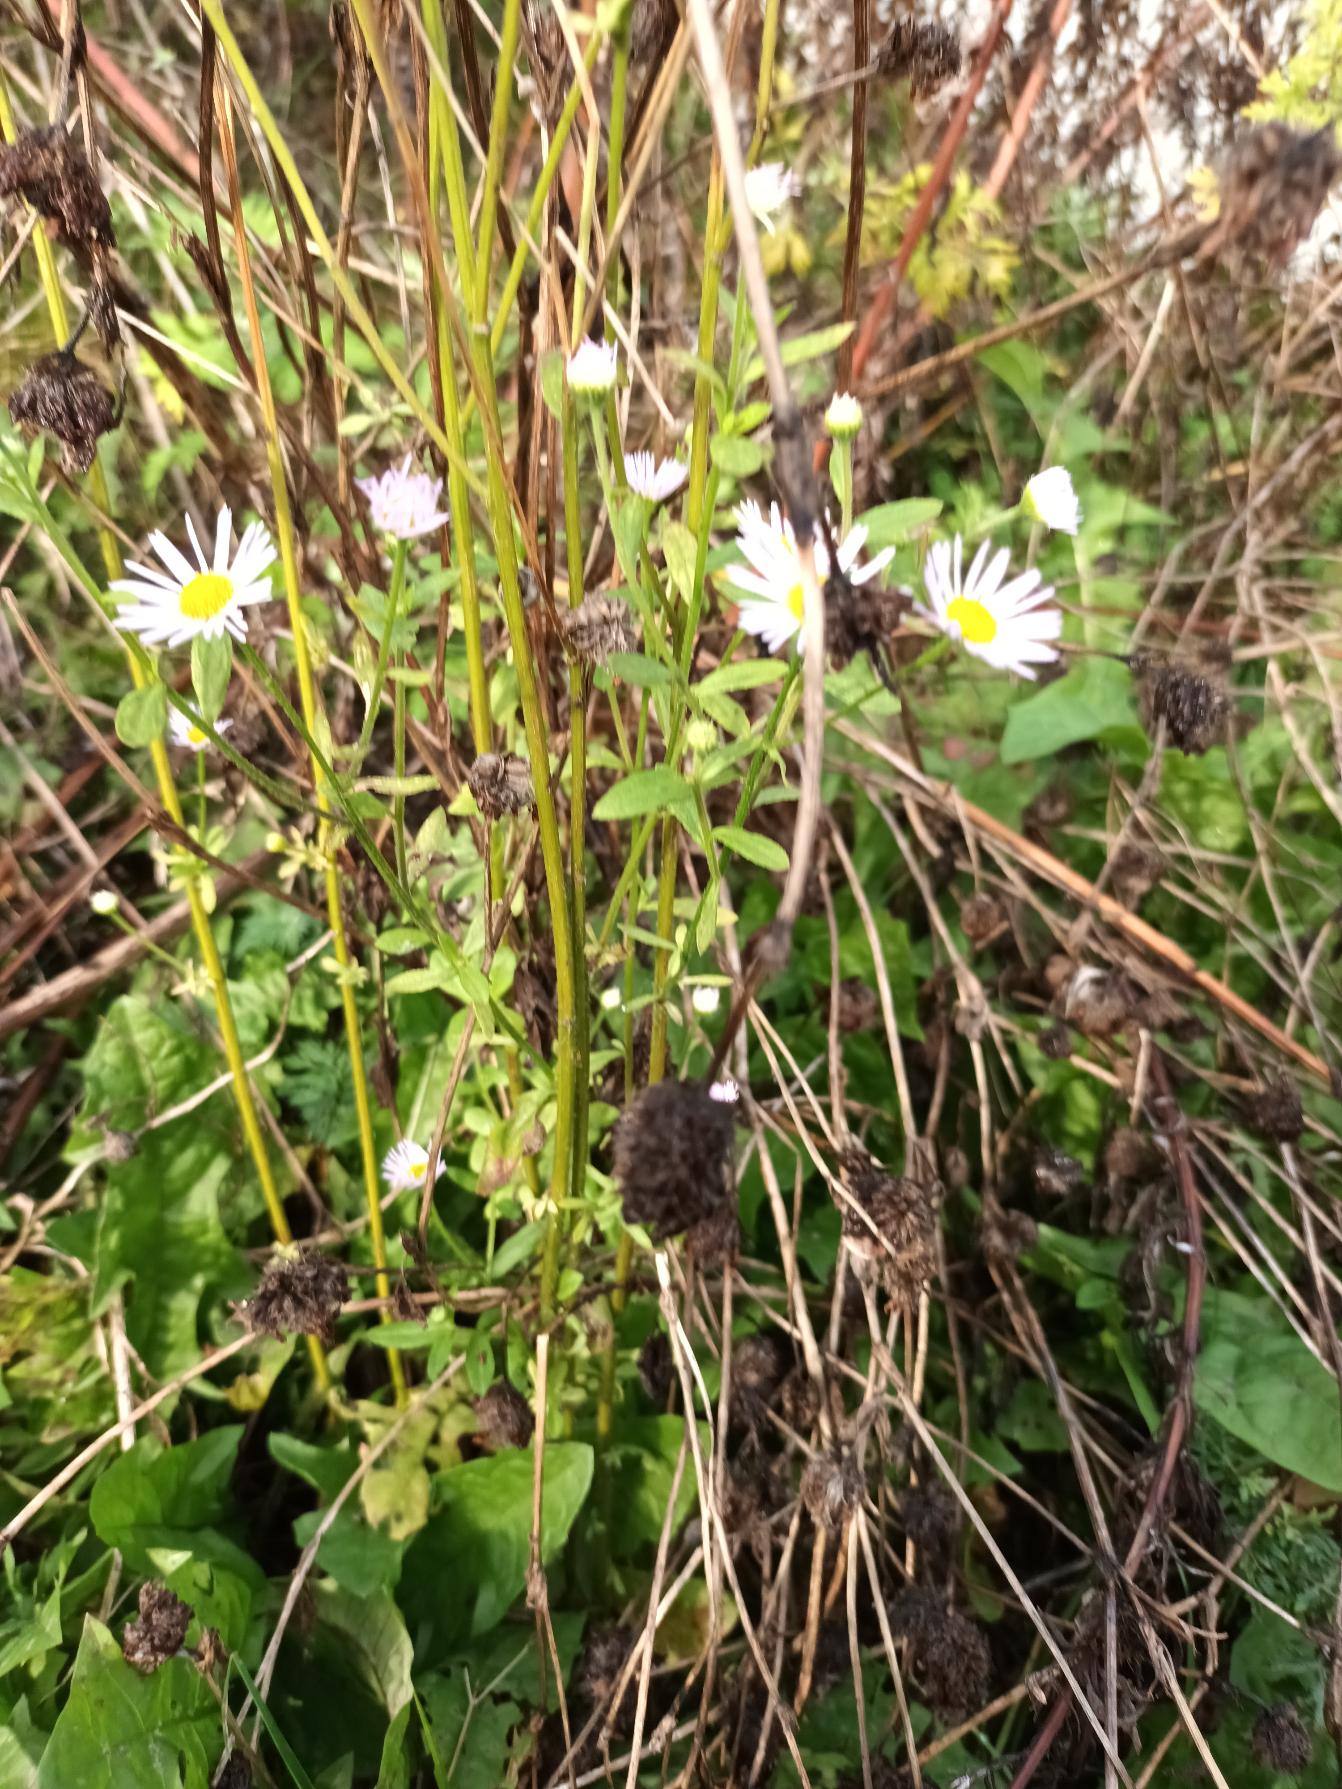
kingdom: Plantae
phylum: Tracheophyta
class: Magnoliopsida
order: Asterales
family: Asteraceae
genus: Erigeron
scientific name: Erigeron annuus
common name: Smalstråle
